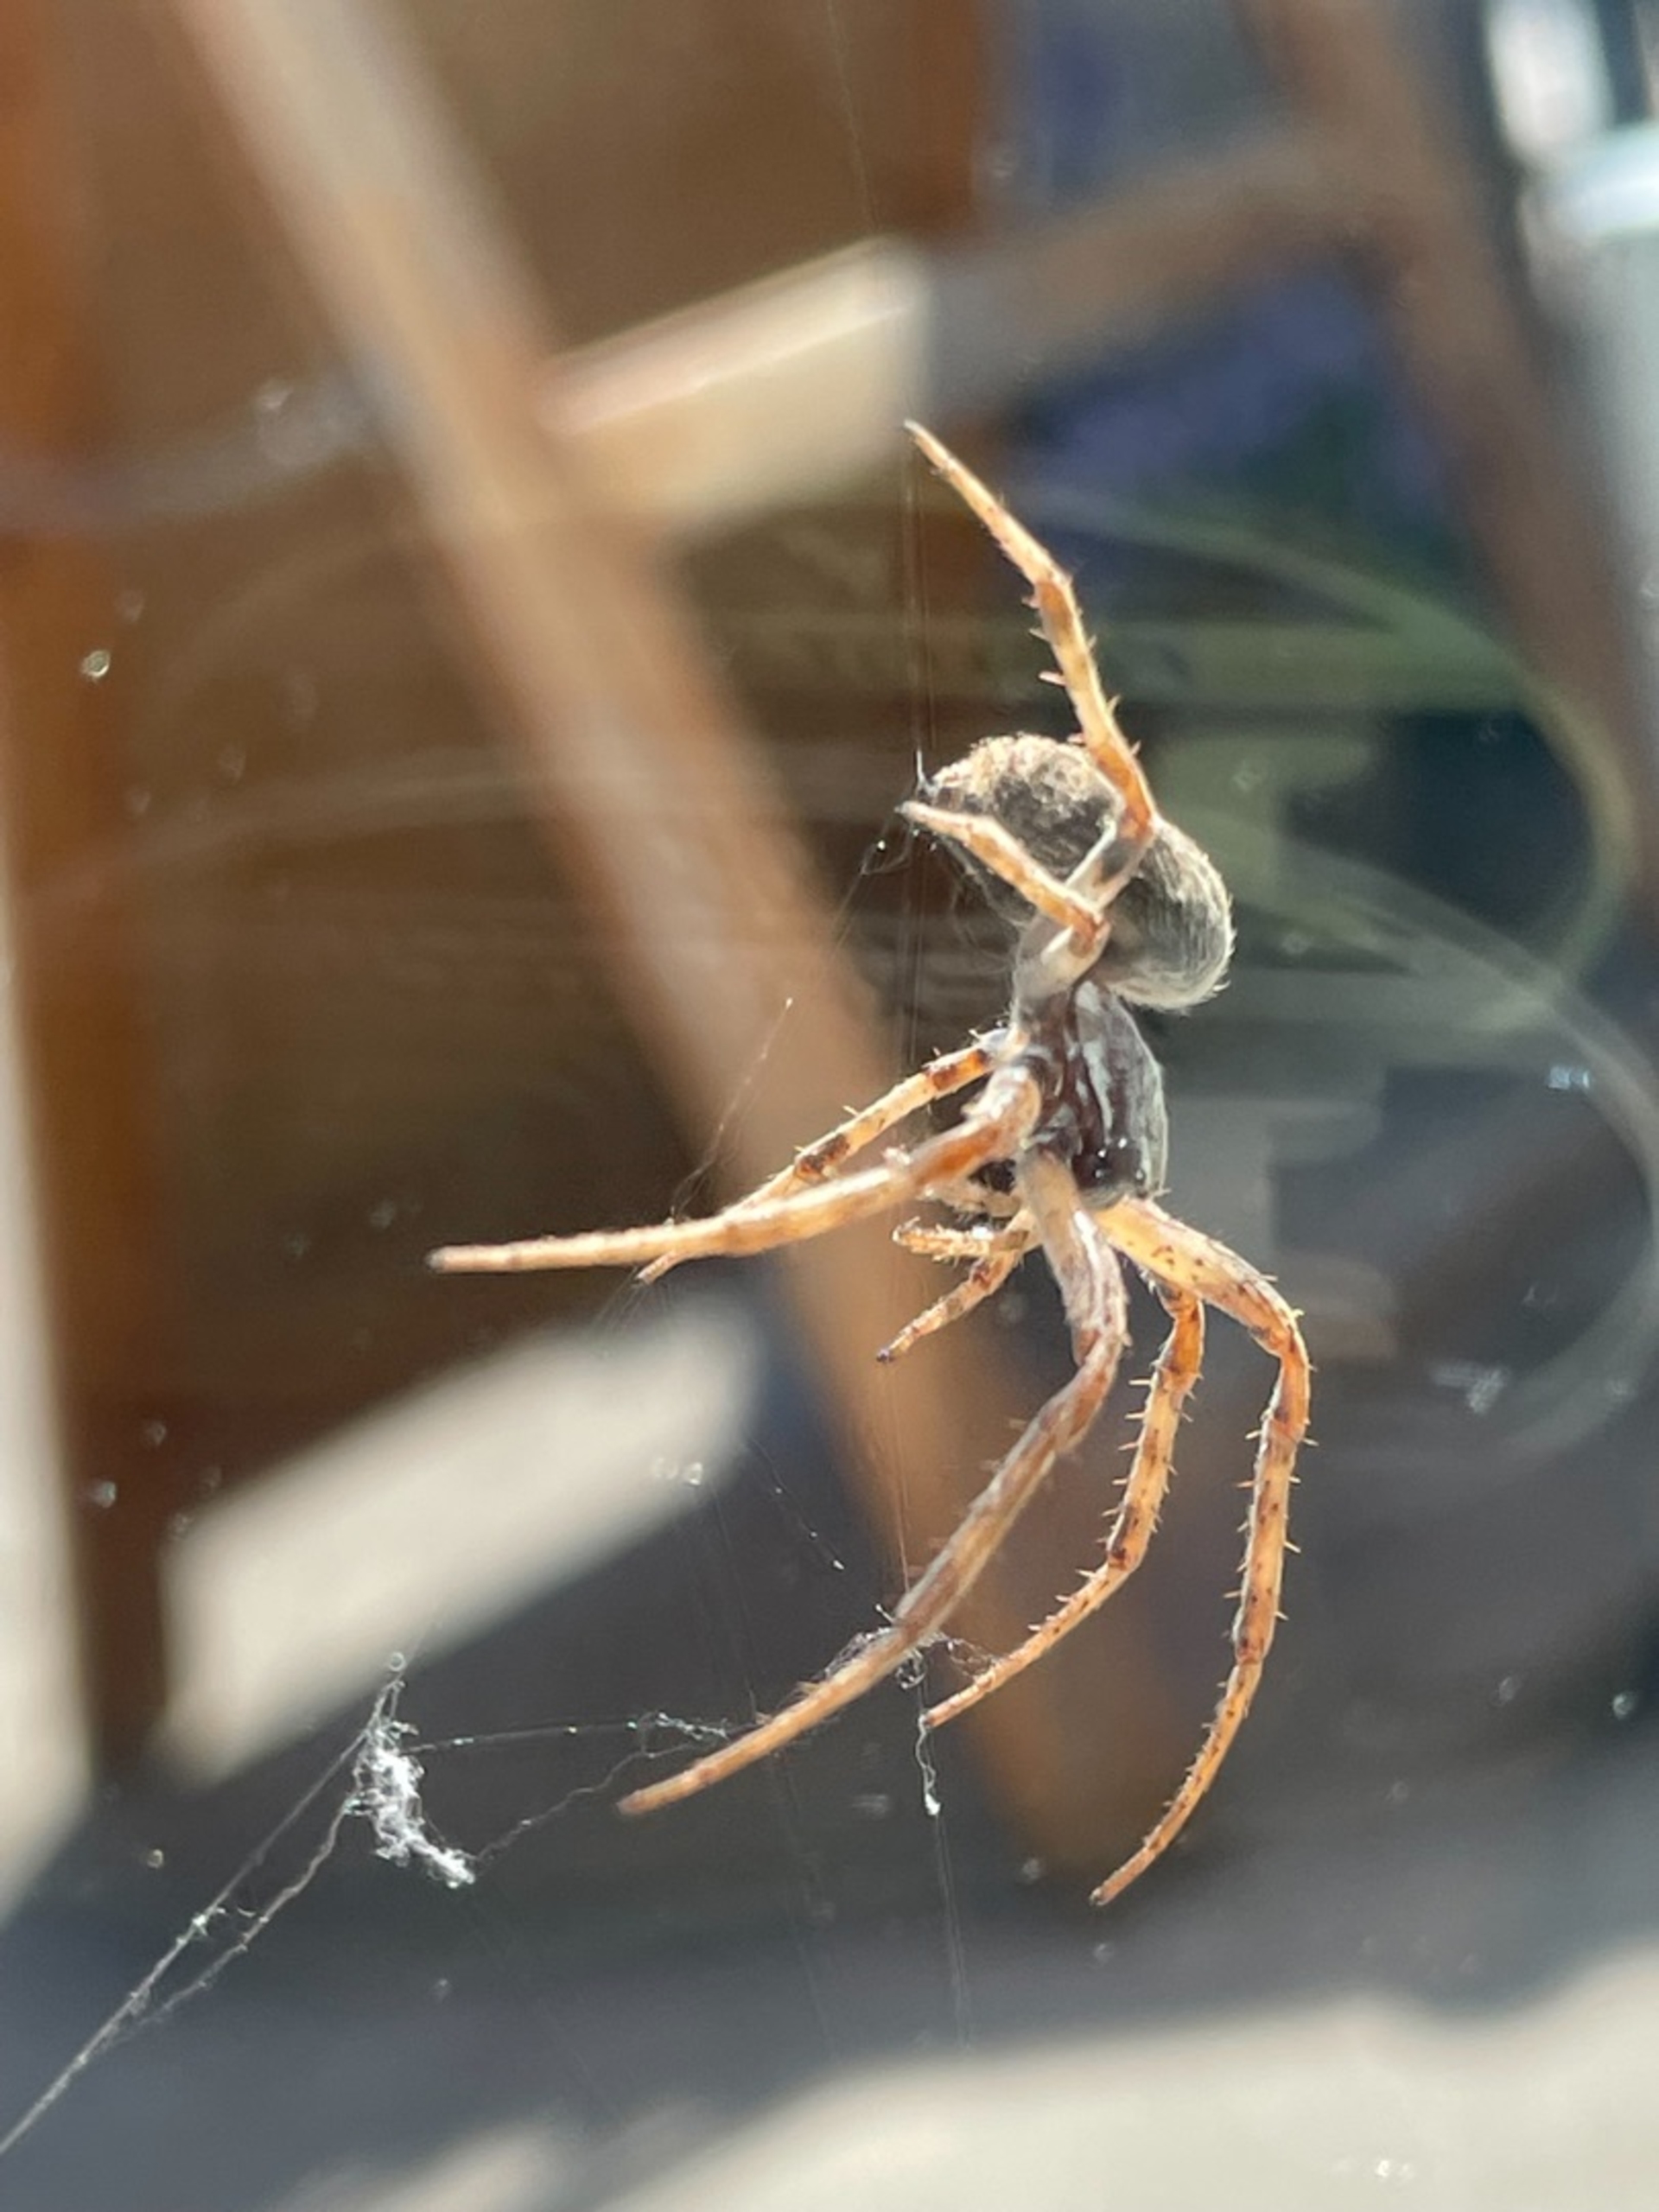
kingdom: Animalia
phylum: Arthropoda
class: Arachnida
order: Araneae
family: Araneidae
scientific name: Araneidae
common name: Hjulspindere
